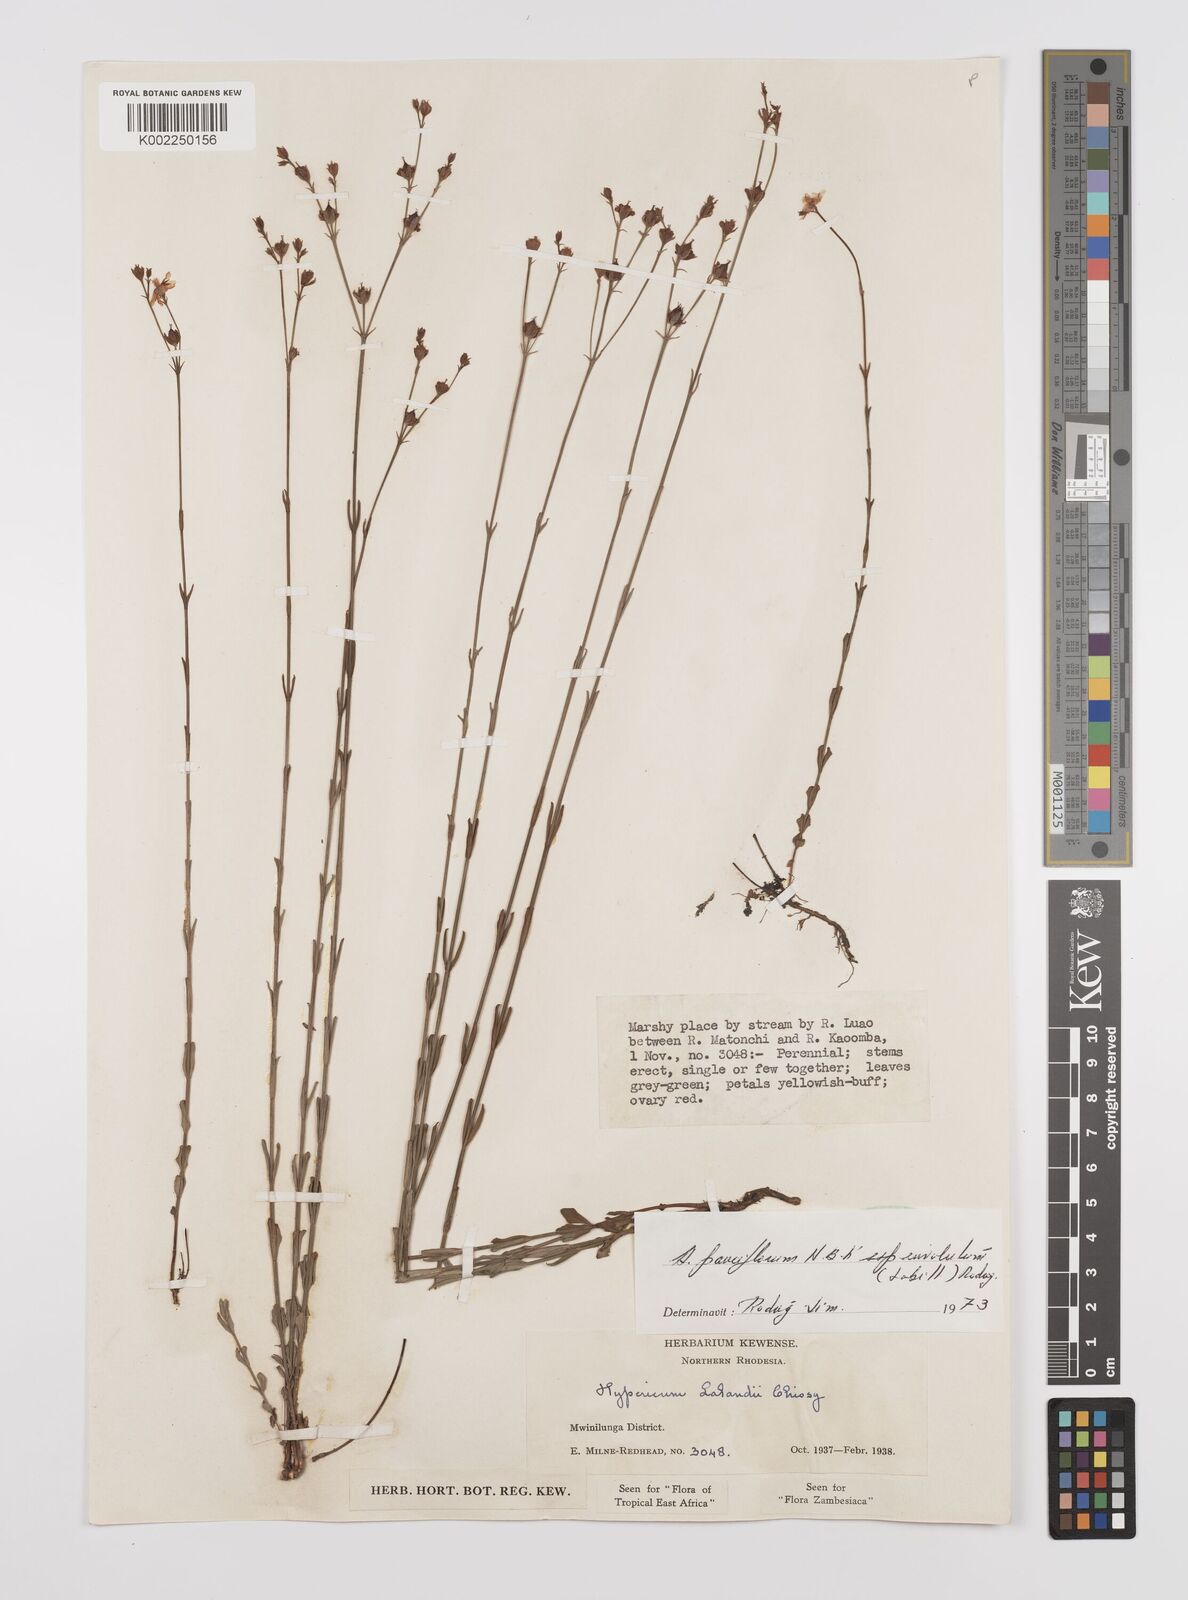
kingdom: Plantae
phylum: Tracheophyta
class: Magnoliopsida
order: Malpighiales
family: Hypericaceae
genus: Hypericum
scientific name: Hypericum lalandii
